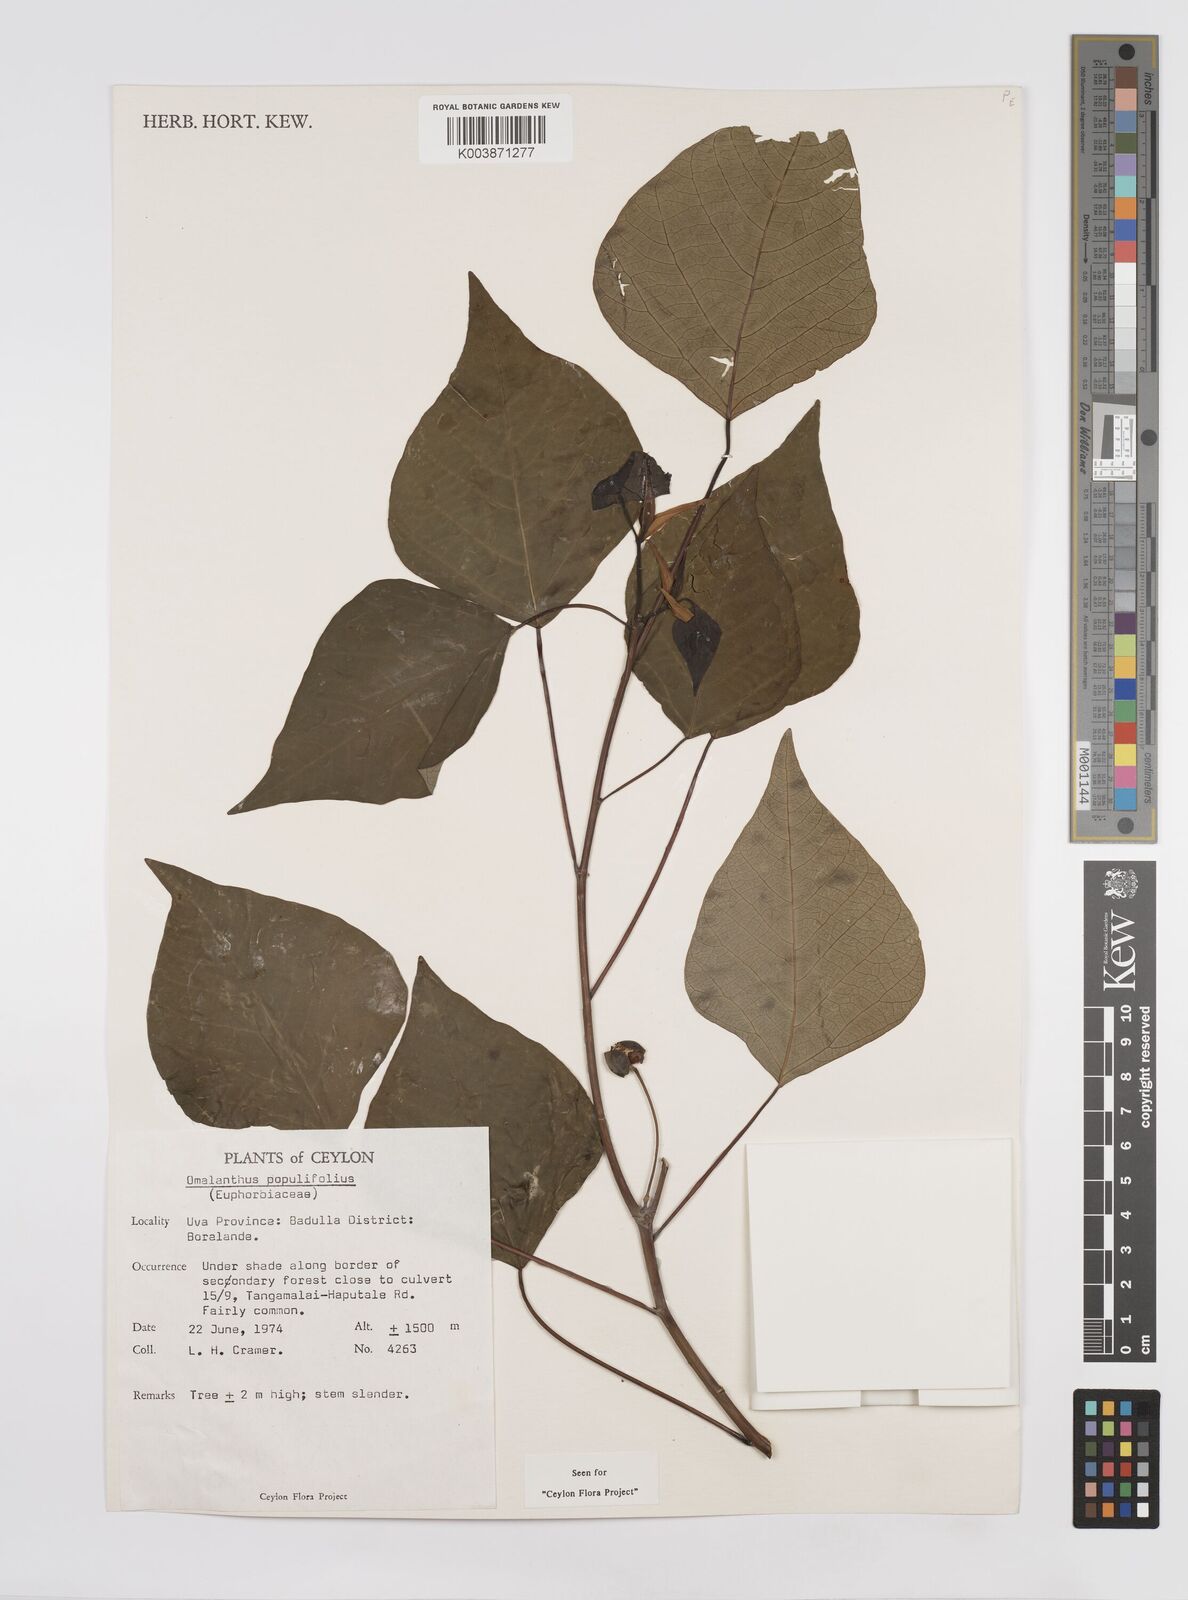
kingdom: Plantae
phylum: Tracheophyta
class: Magnoliopsida
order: Malpighiales
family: Euphorbiaceae
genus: Homalanthus
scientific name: Homalanthus populneus
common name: Spurge
